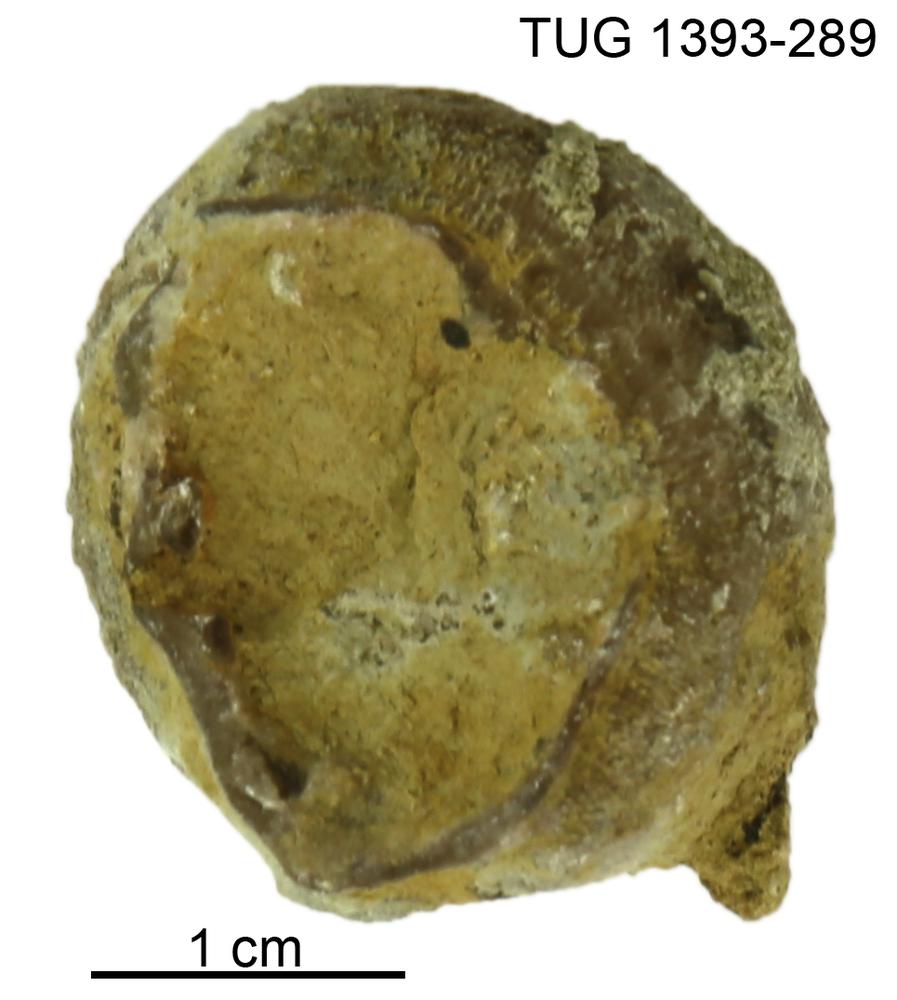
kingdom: Animalia
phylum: Bryozoa
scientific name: Bryozoa
